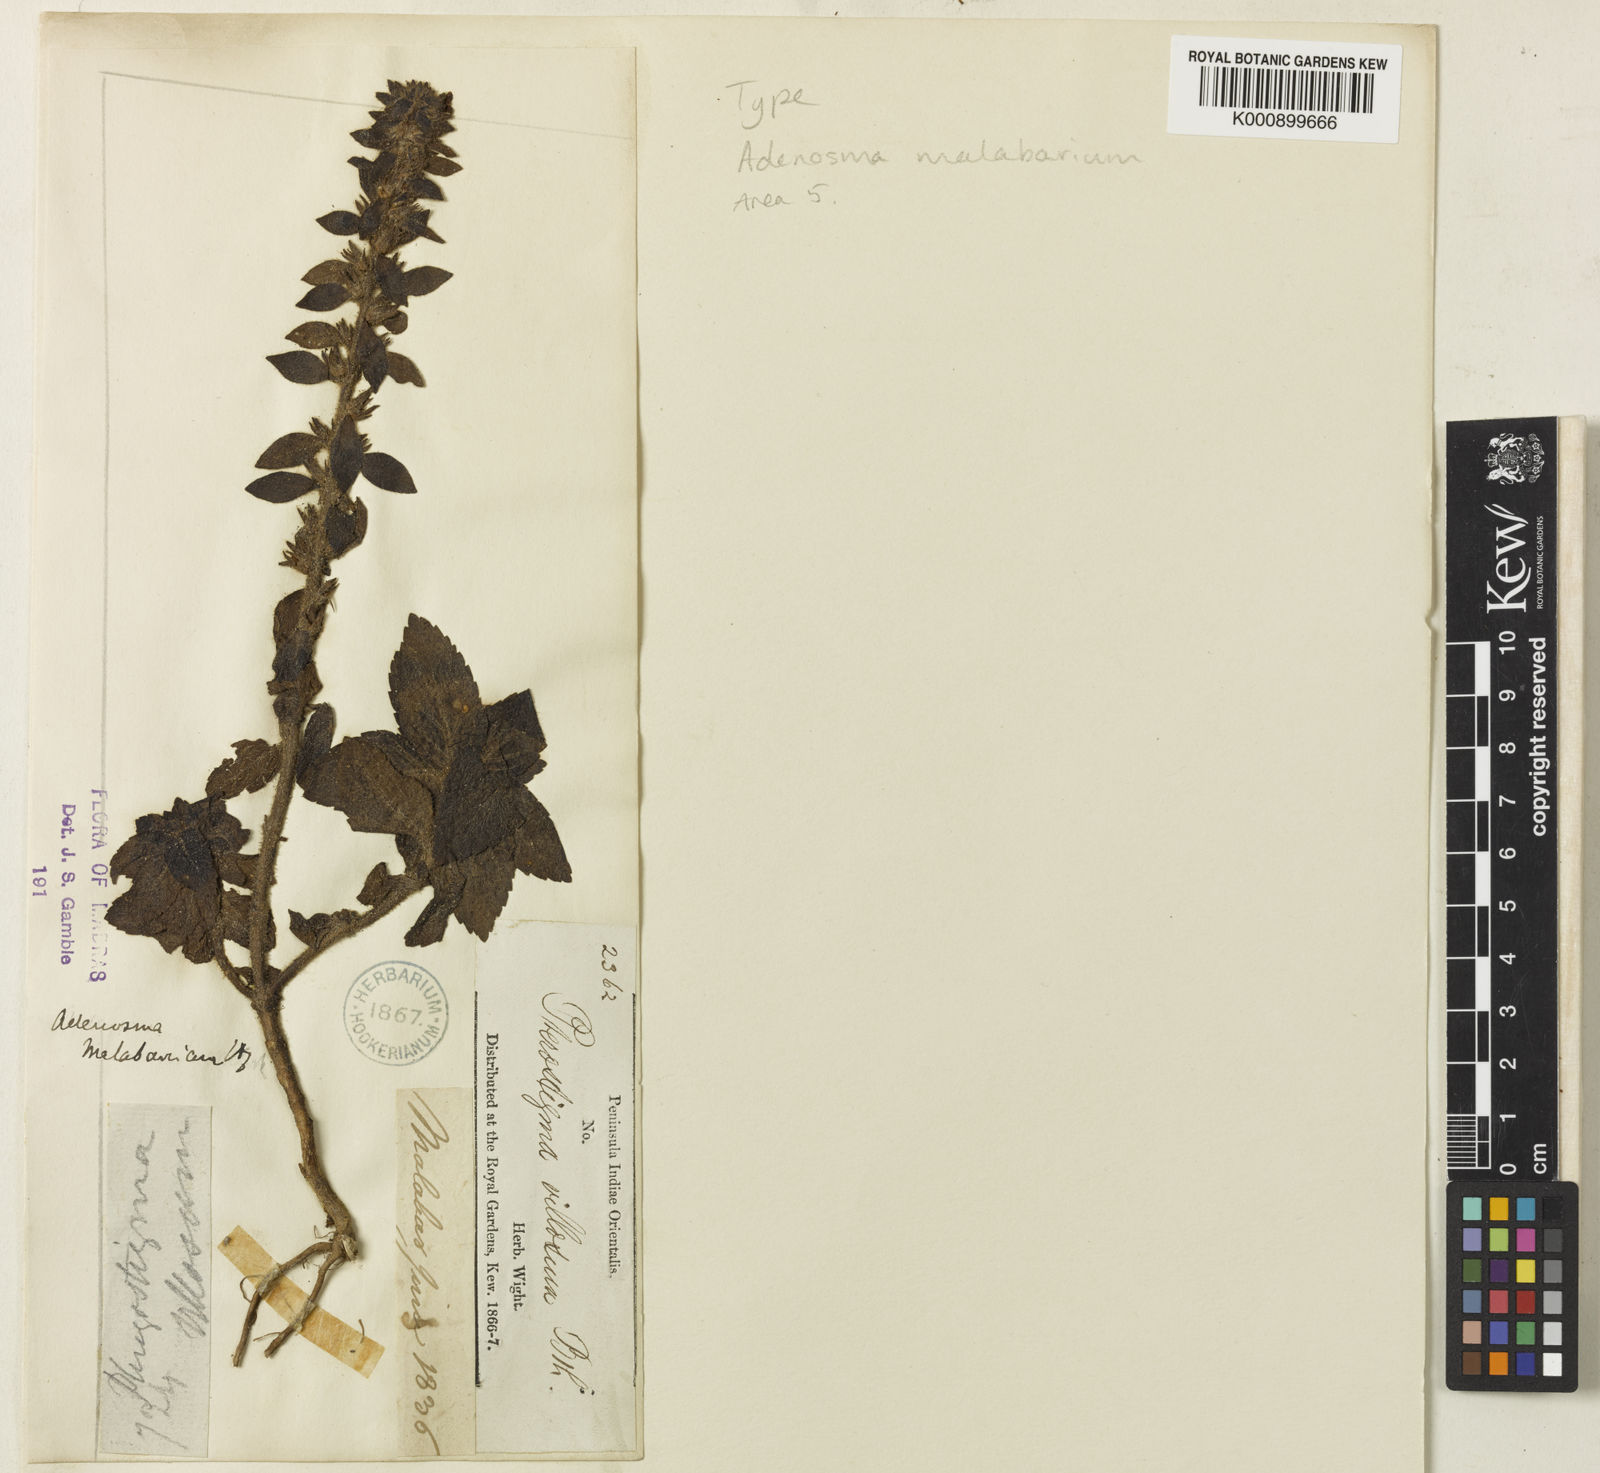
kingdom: Plantae
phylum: Tracheophyta
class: Magnoliopsida
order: Lamiales
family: Plantaginaceae
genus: Adenosma
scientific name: Adenosma malabarica
